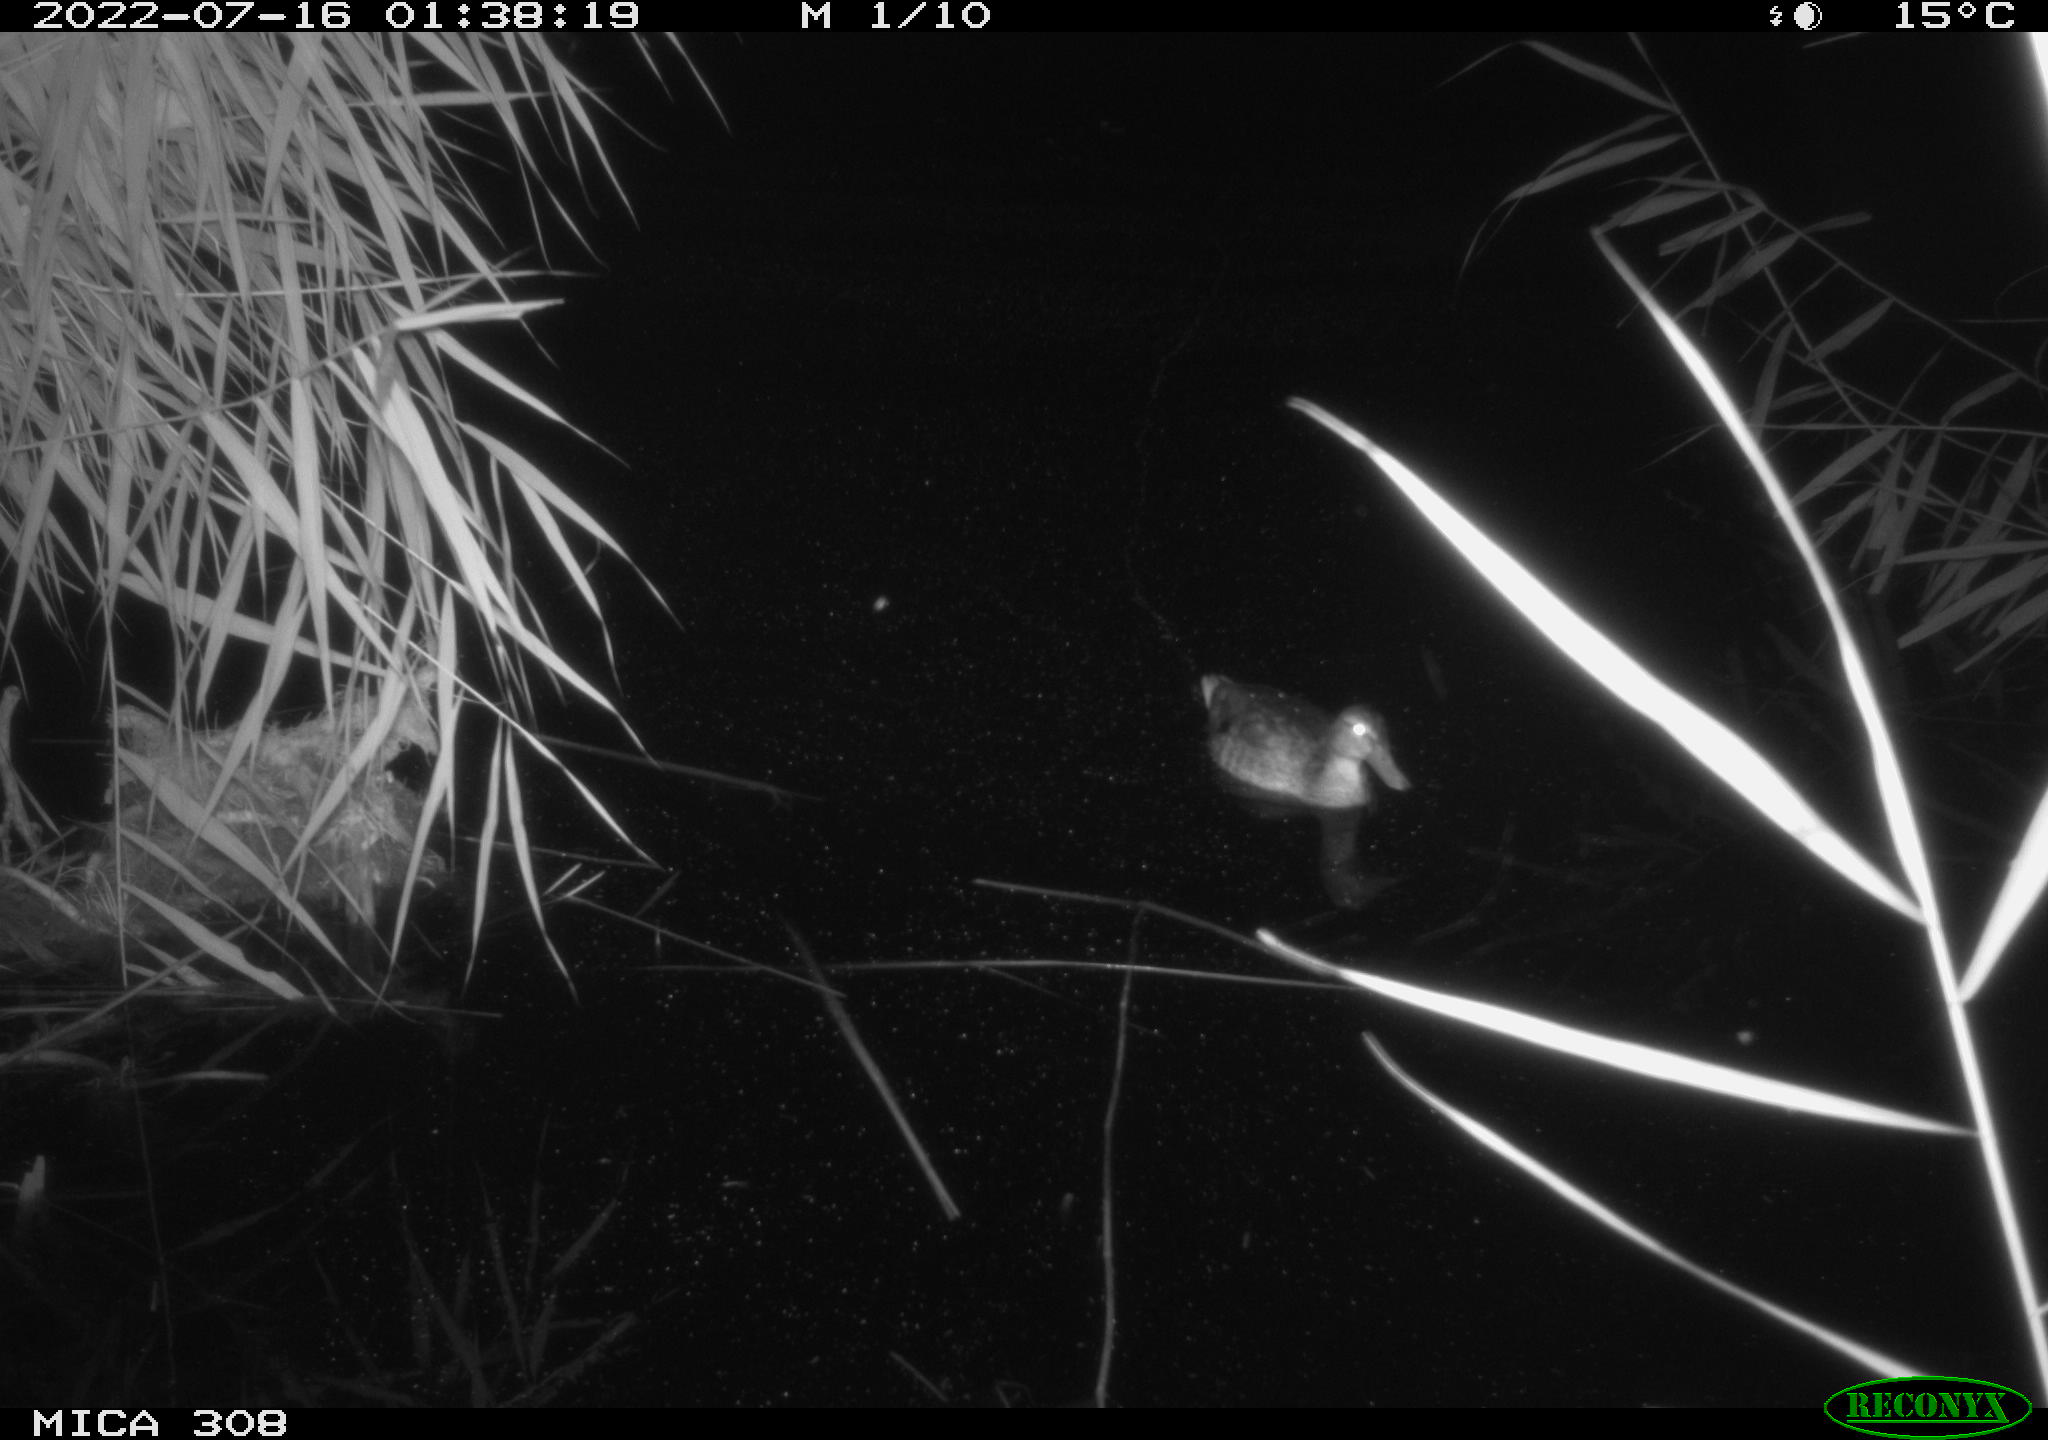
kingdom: Animalia
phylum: Chordata
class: Aves
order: Gruiformes
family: Rallidae
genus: Gallinula
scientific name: Gallinula chloropus
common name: Common moorhen
